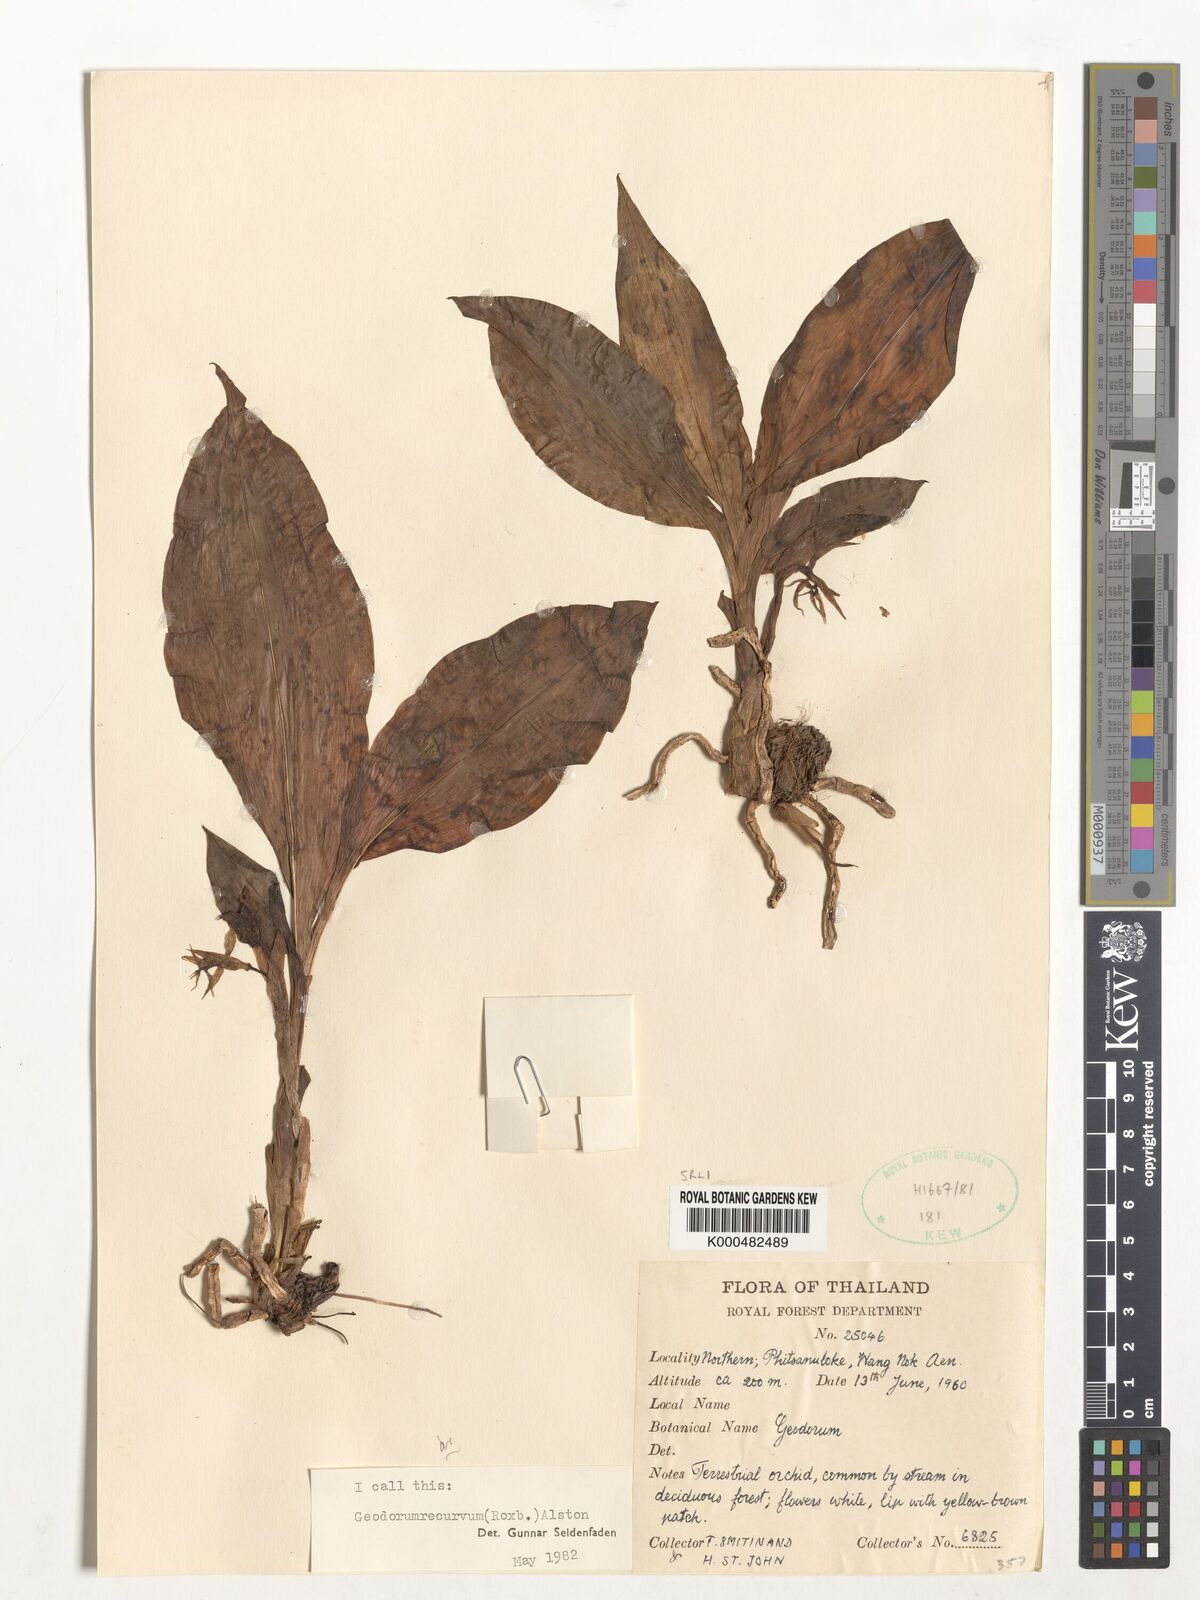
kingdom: Plantae
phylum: Tracheophyta
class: Liliopsida
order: Asparagales
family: Orchidaceae
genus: Eulophia
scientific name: Eulophia recurva
